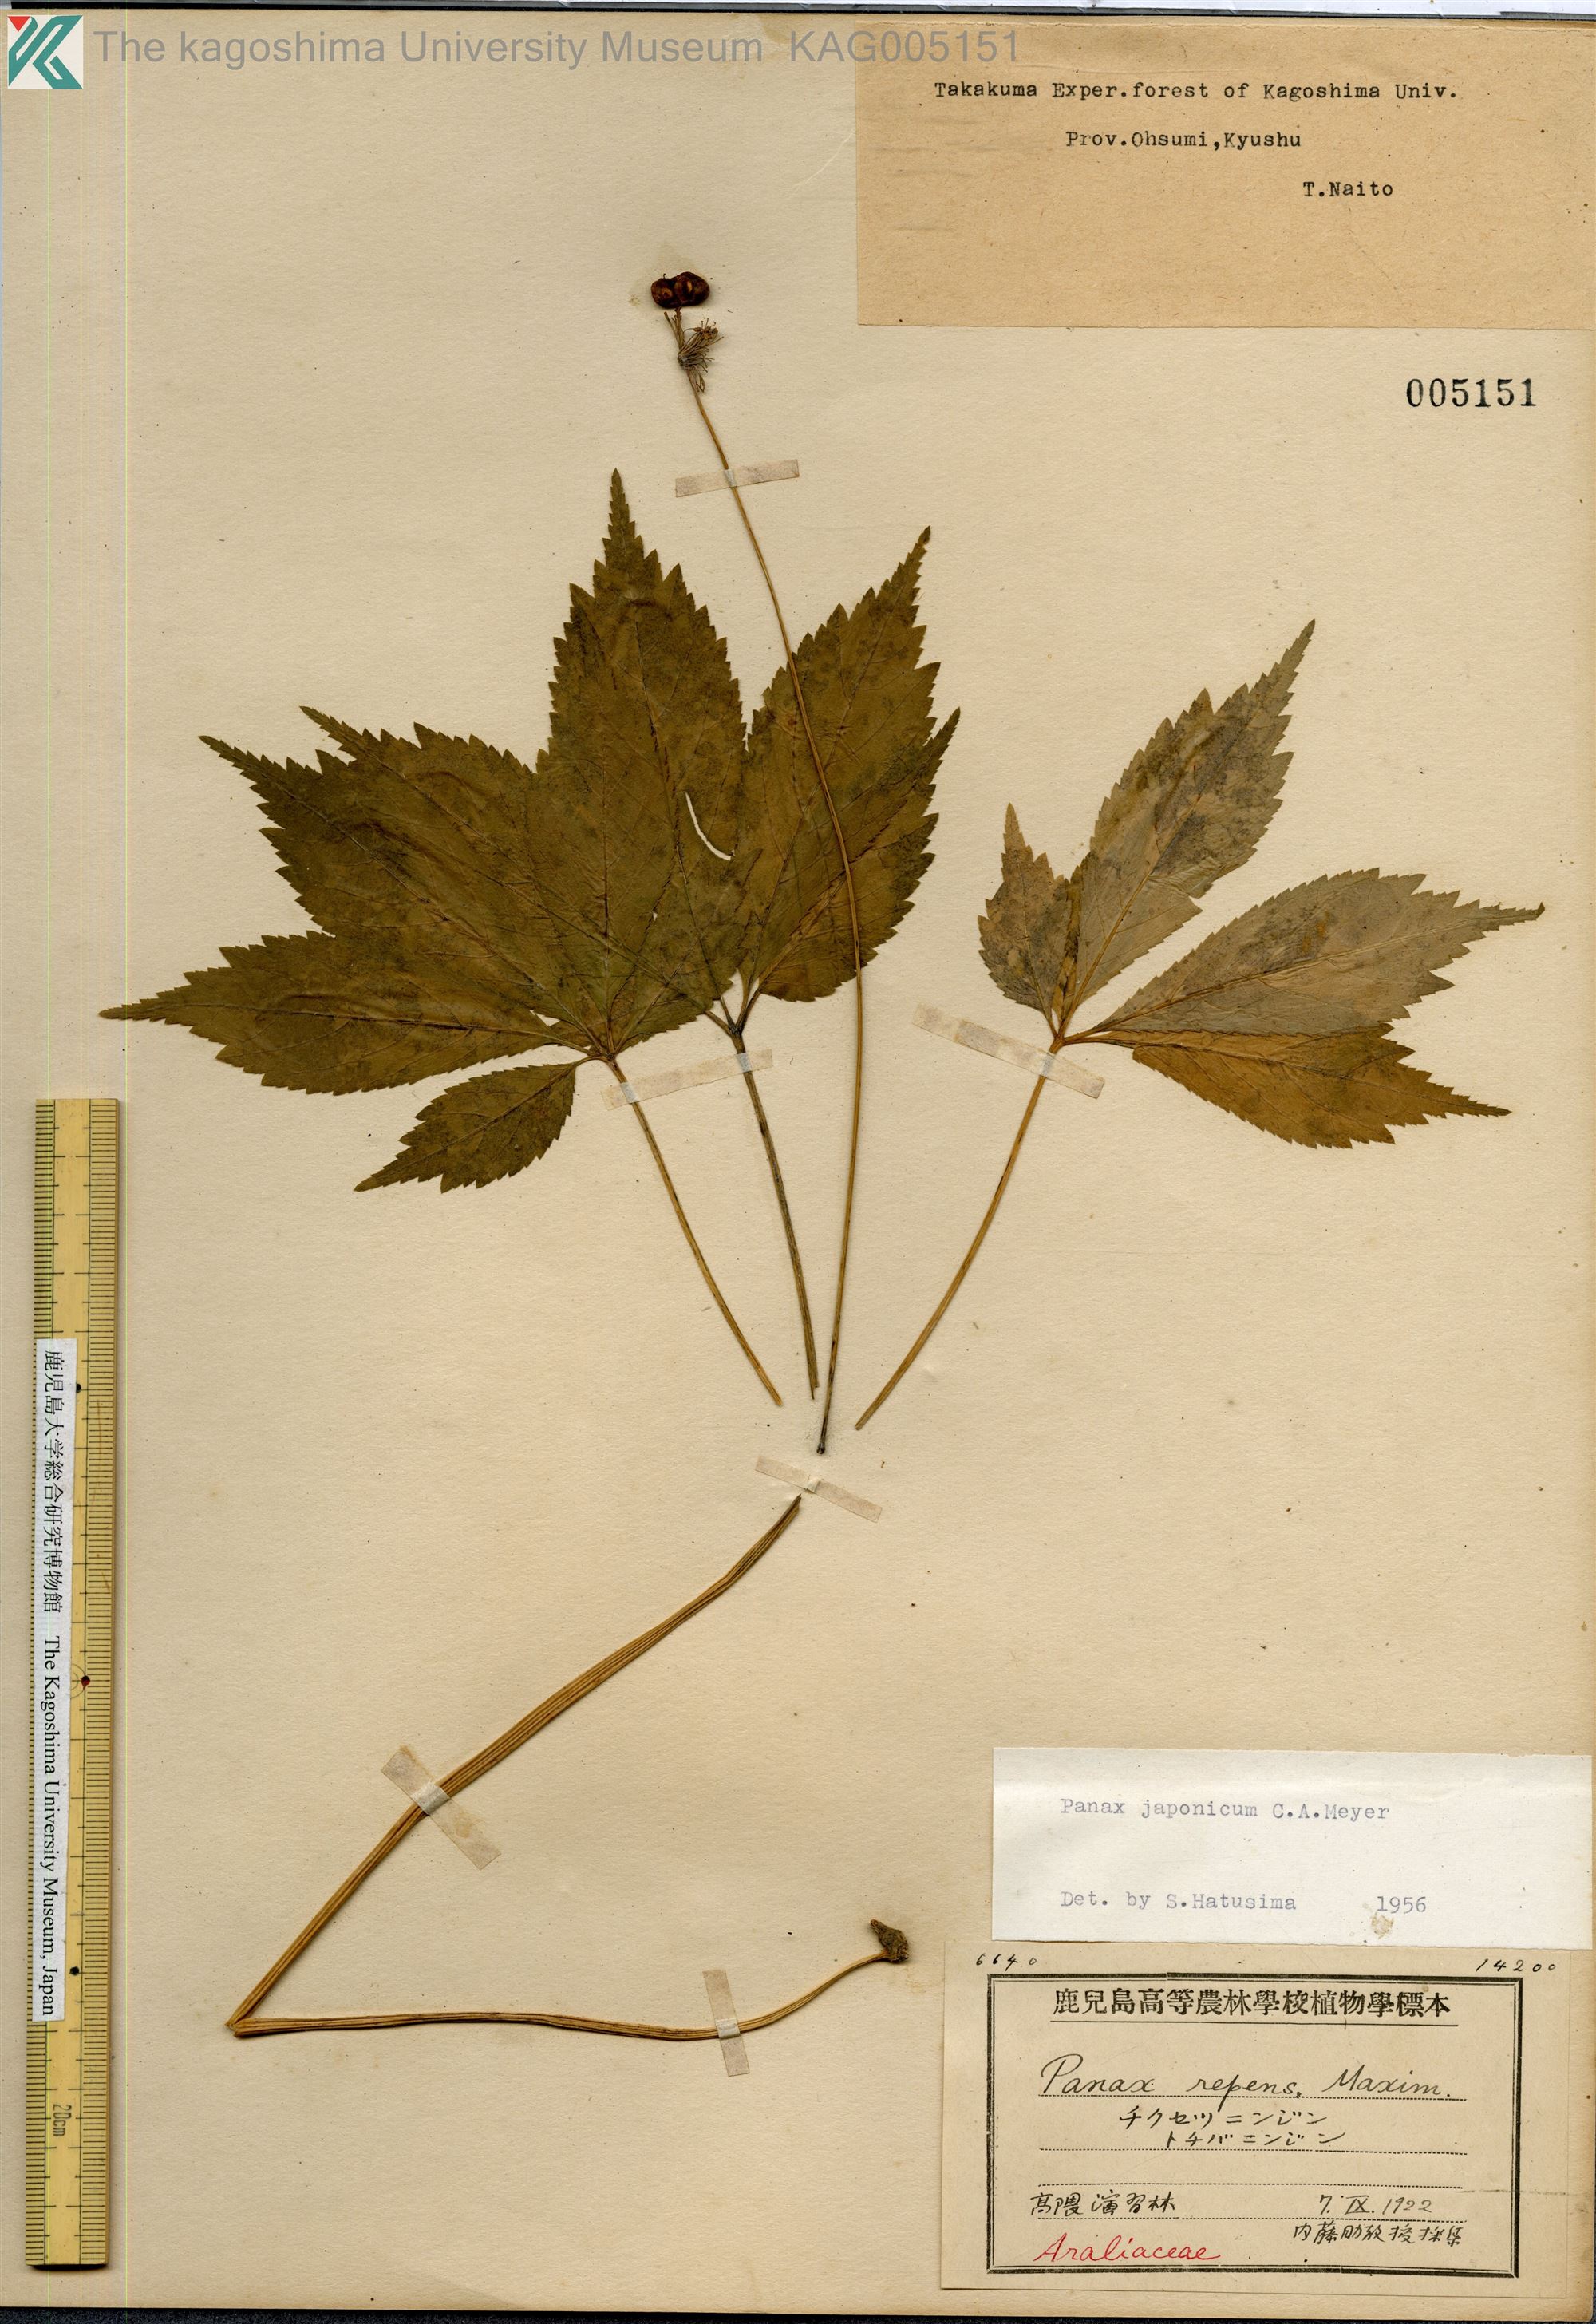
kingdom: Plantae
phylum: Tracheophyta
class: Magnoliopsida
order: Apiales
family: Araliaceae
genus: Panax
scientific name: Panax japonicus
